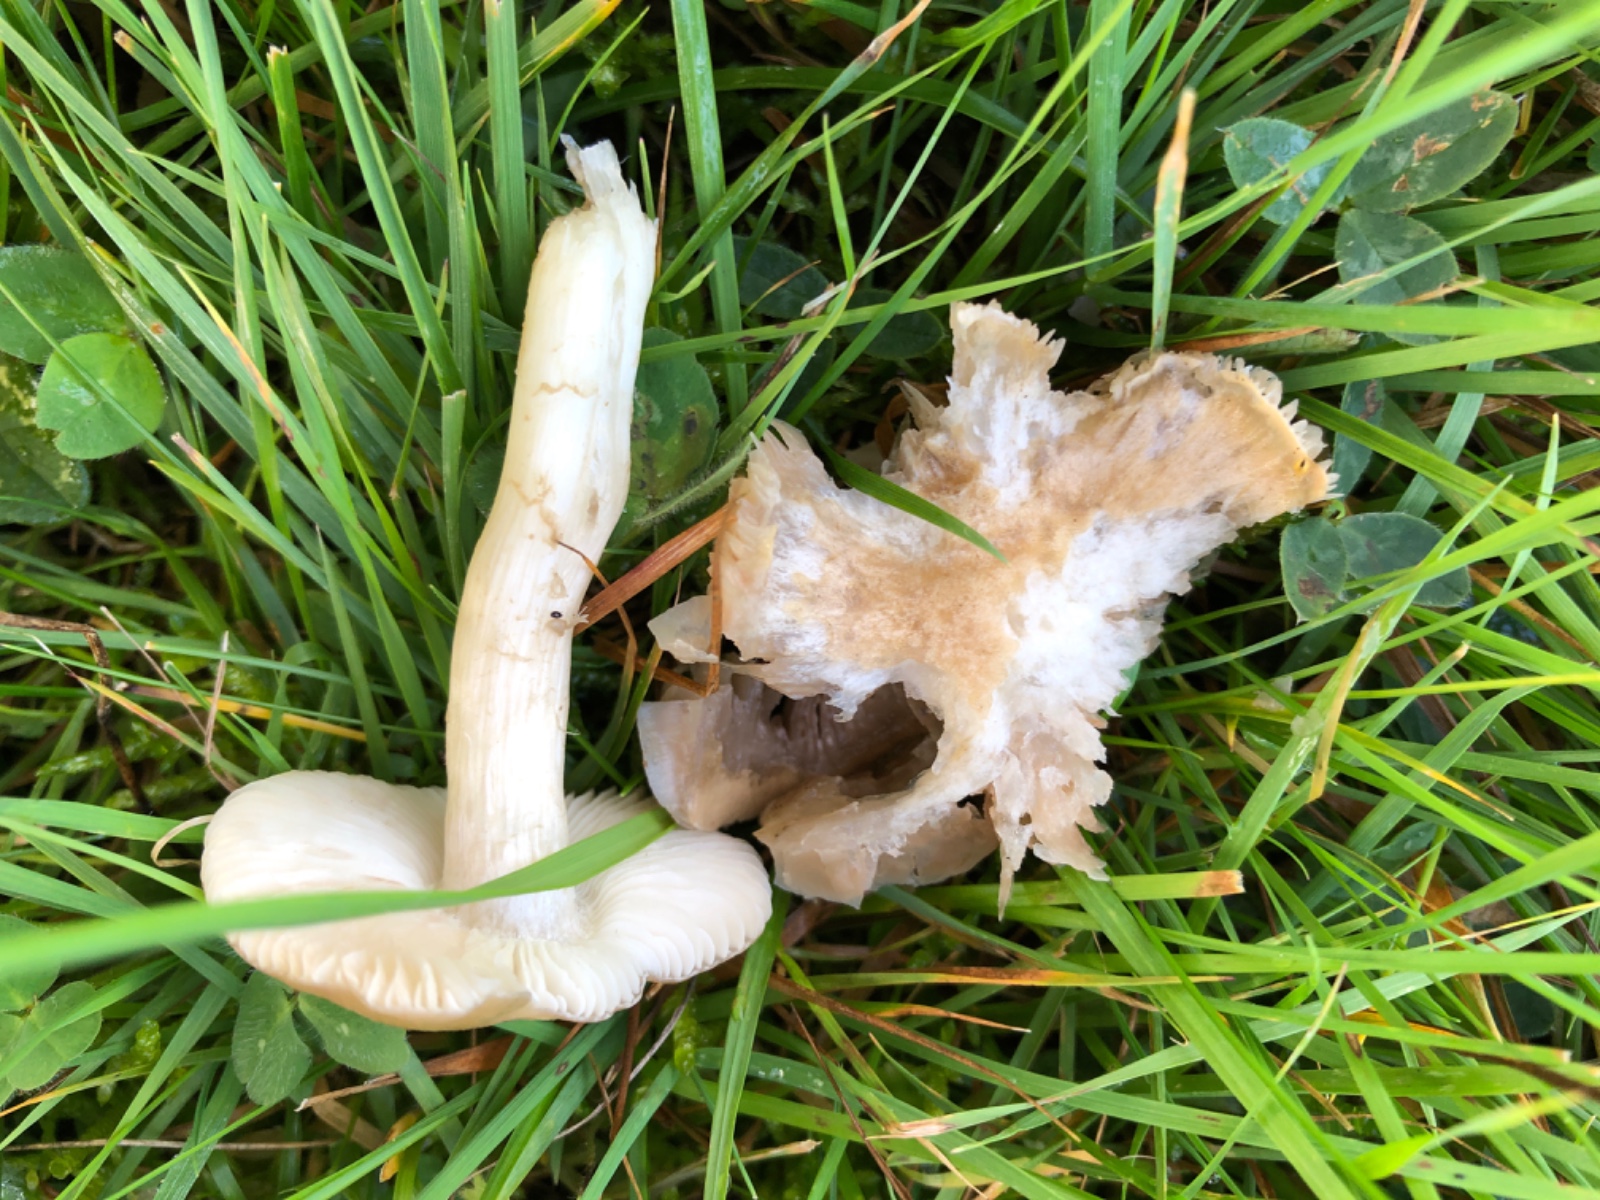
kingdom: Fungi
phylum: Basidiomycota
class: Agaricomycetes
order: Agaricales
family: Entolomataceae
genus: Entoloma
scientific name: Entoloma prunuloides
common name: mel-rødblad
